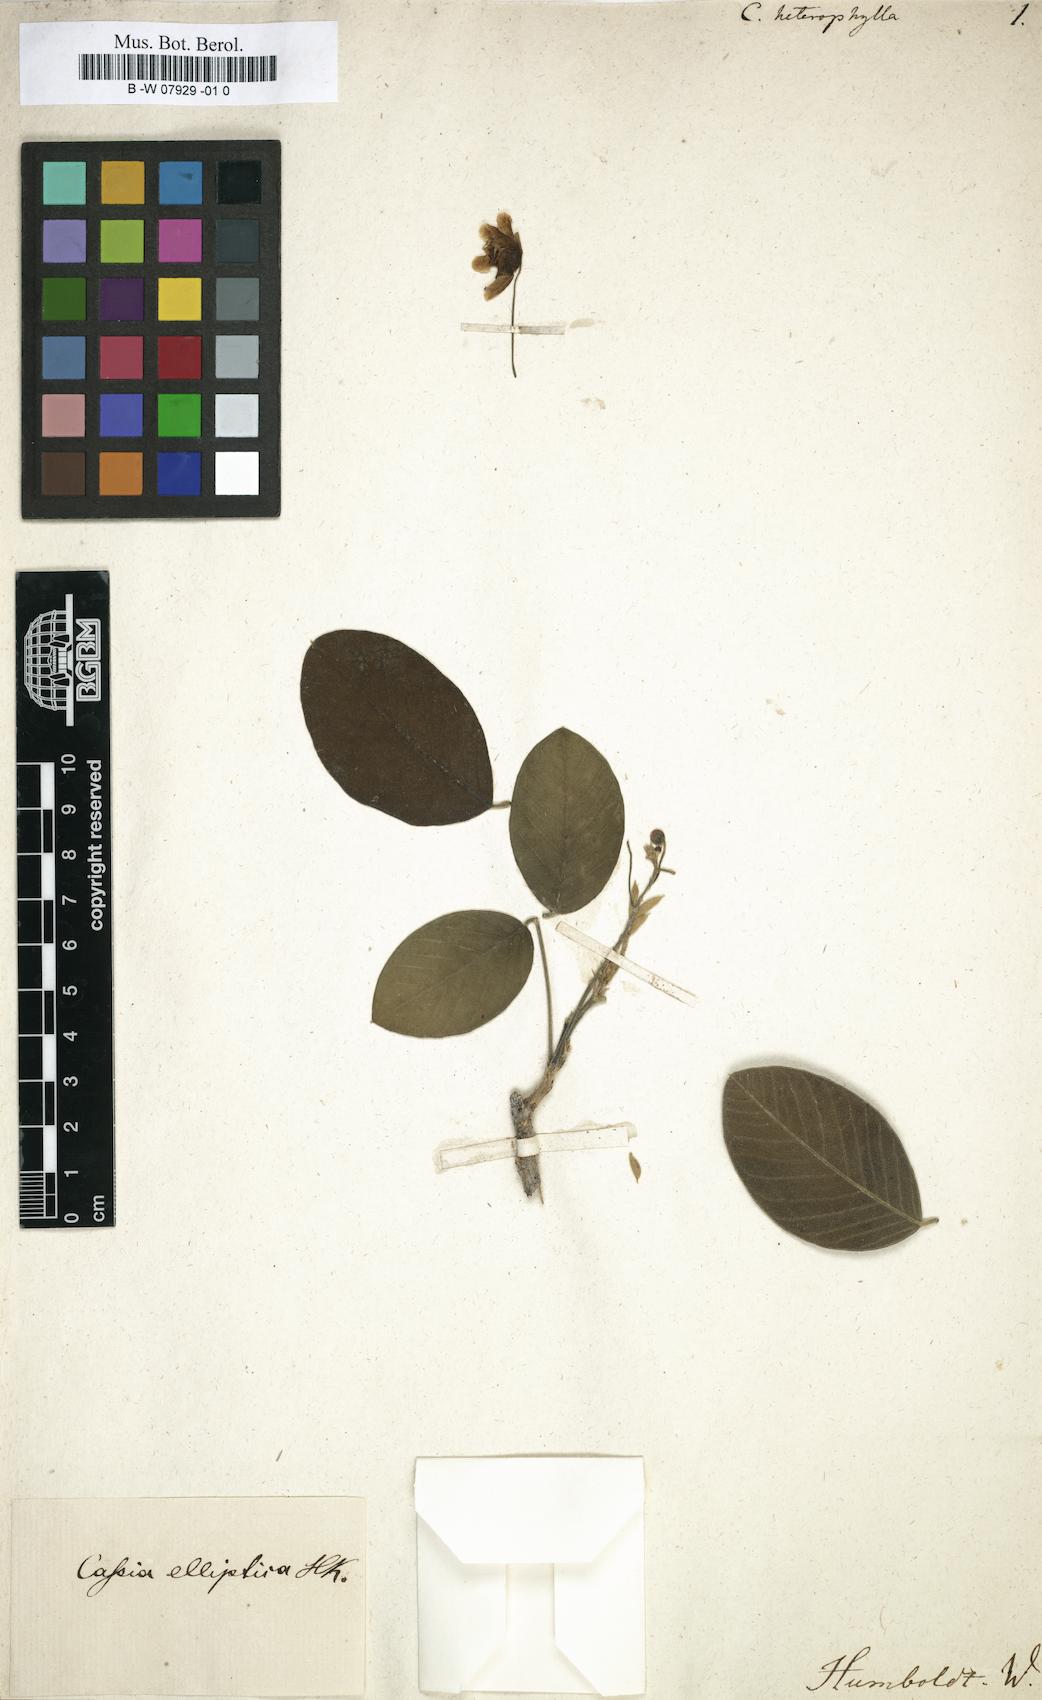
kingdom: Plantae
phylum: Tracheophyta
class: Magnoliopsida
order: Fabales
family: Fabaceae
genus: Cassia
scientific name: Cassia heterophylla
